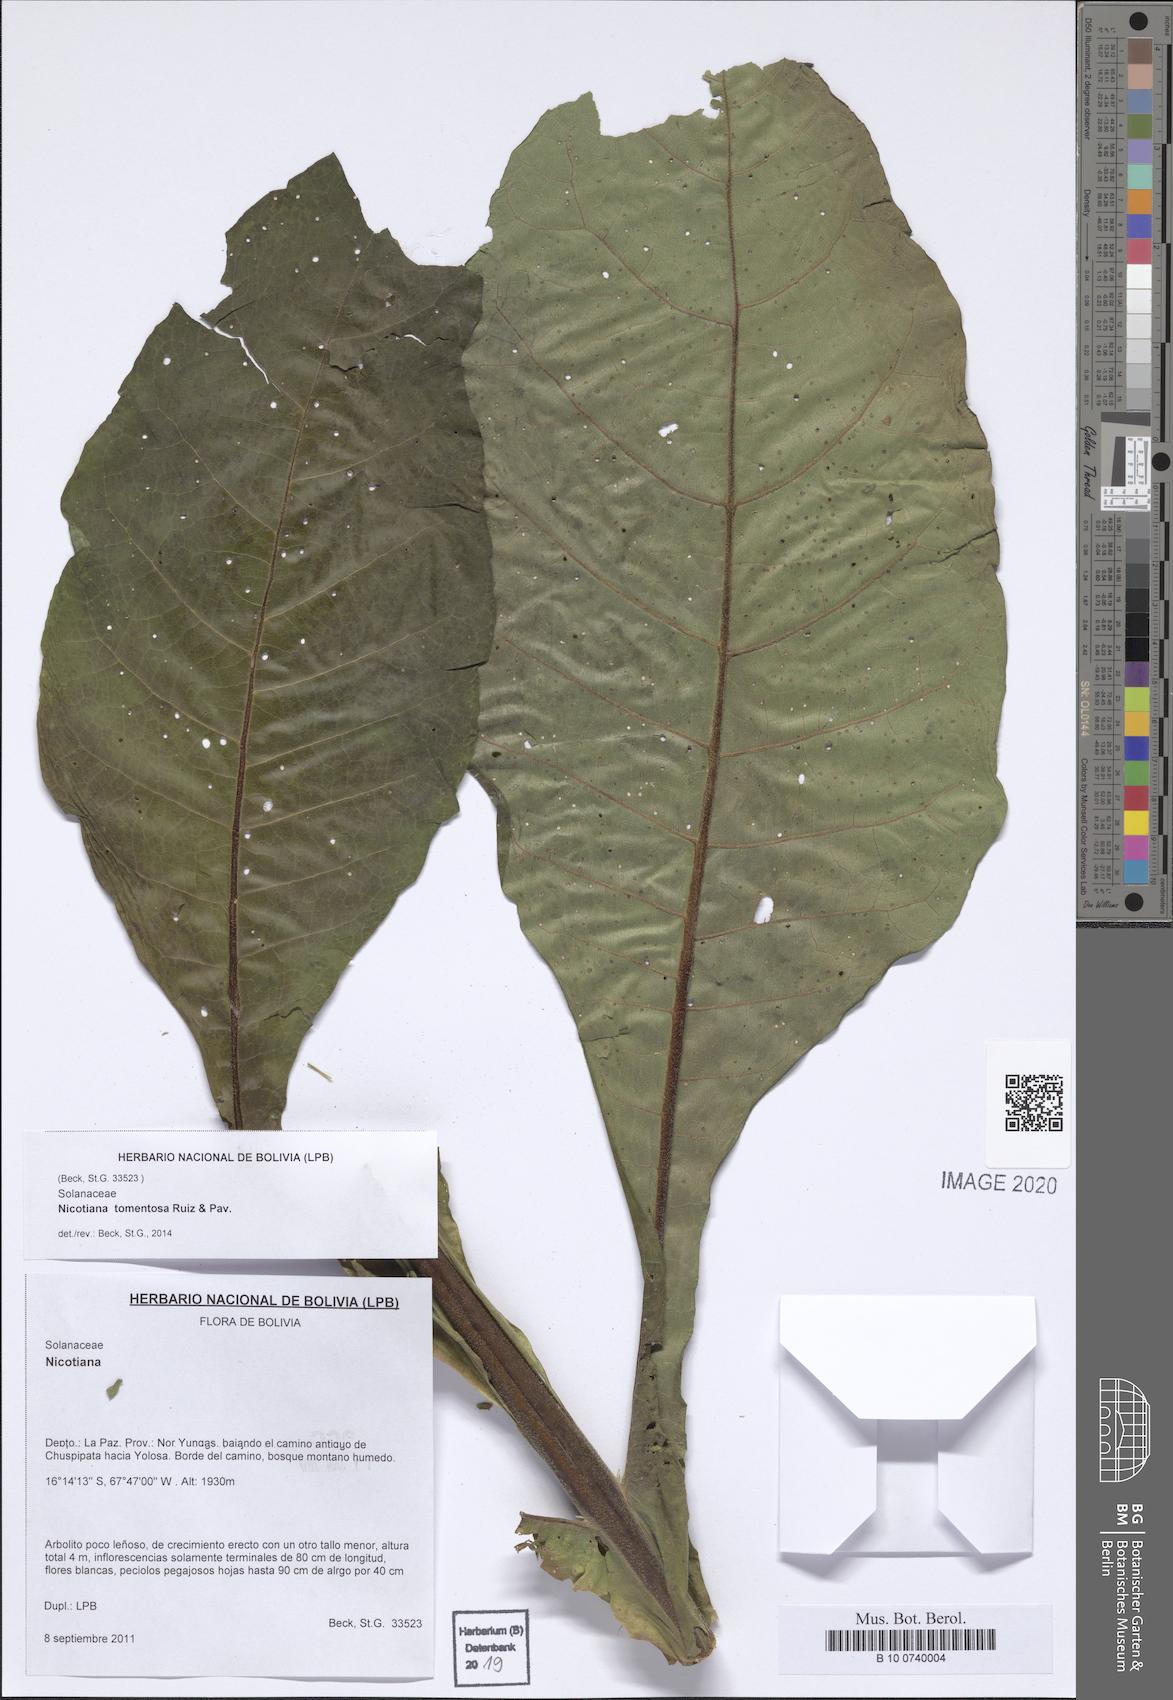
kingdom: Plantae
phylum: Tracheophyta
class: Magnoliopsida
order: Solanales
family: Solanaceae
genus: Nicotiana
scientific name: Nicotiana tomentosa
